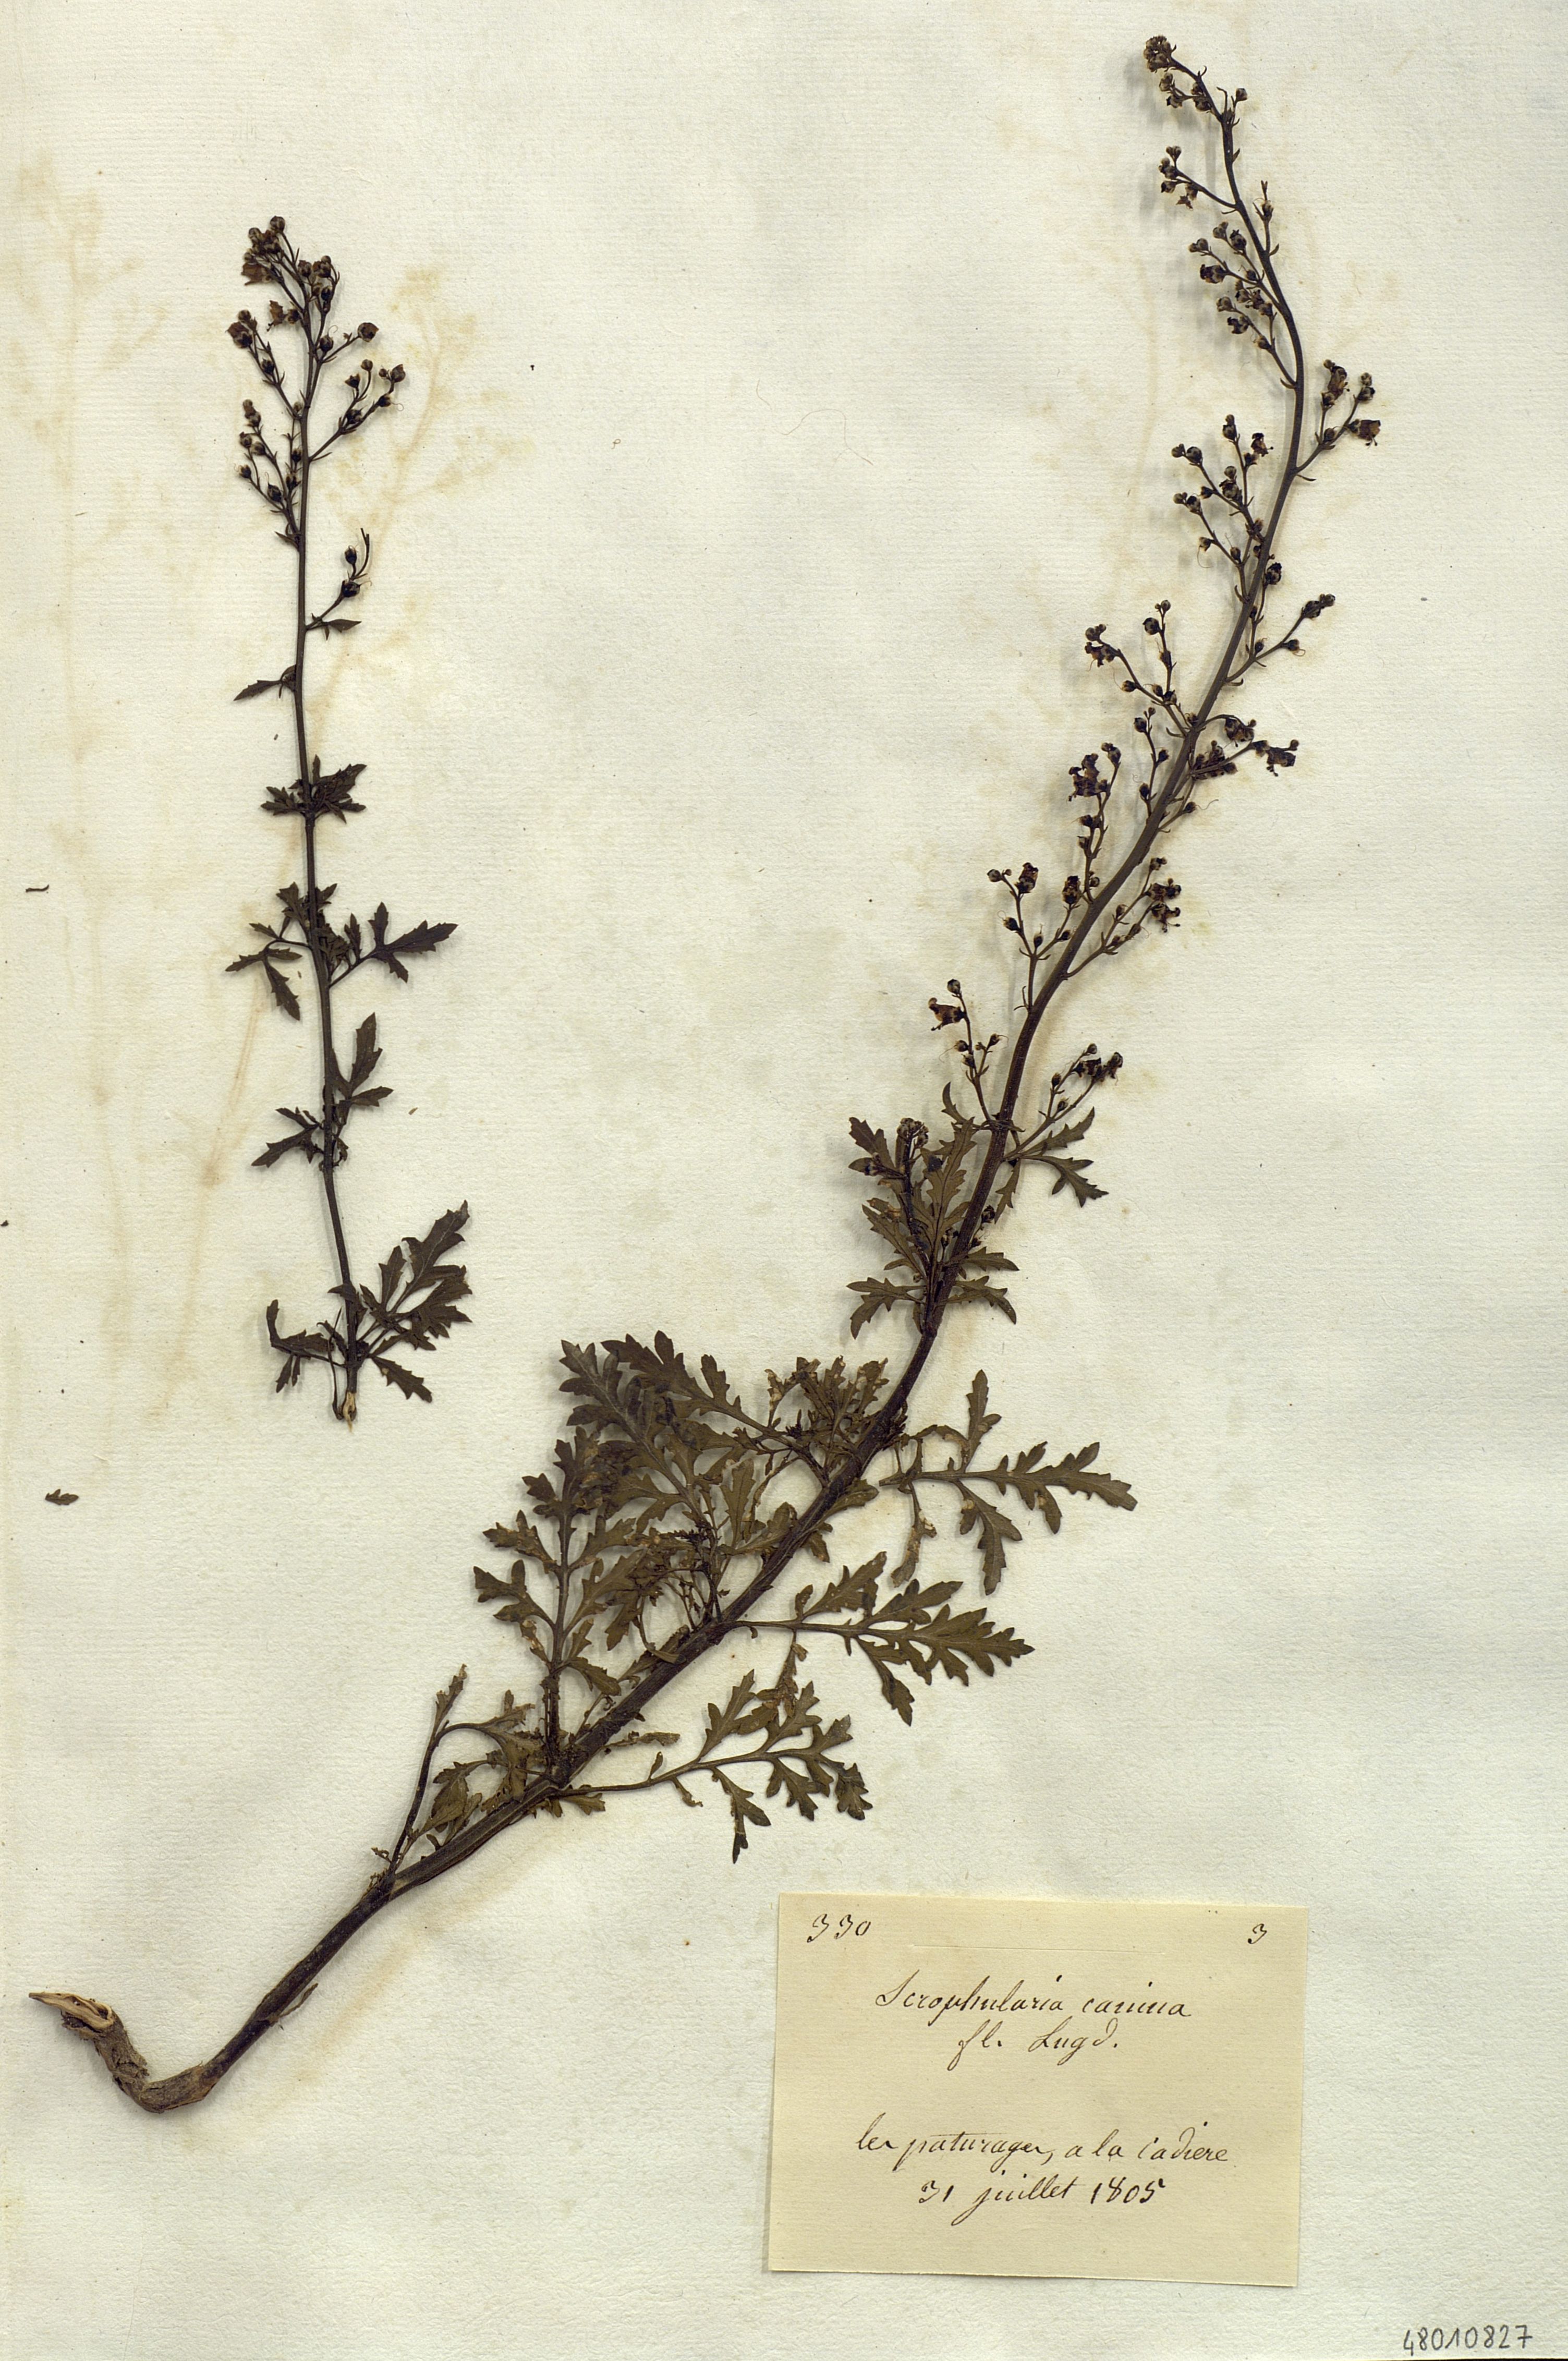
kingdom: Plantae
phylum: Tracheophyta
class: Magnoliopsida
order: Lamiales
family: Scrophulariaceae
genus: Scrophularia
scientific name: Scrophularia canina
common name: French figwort
